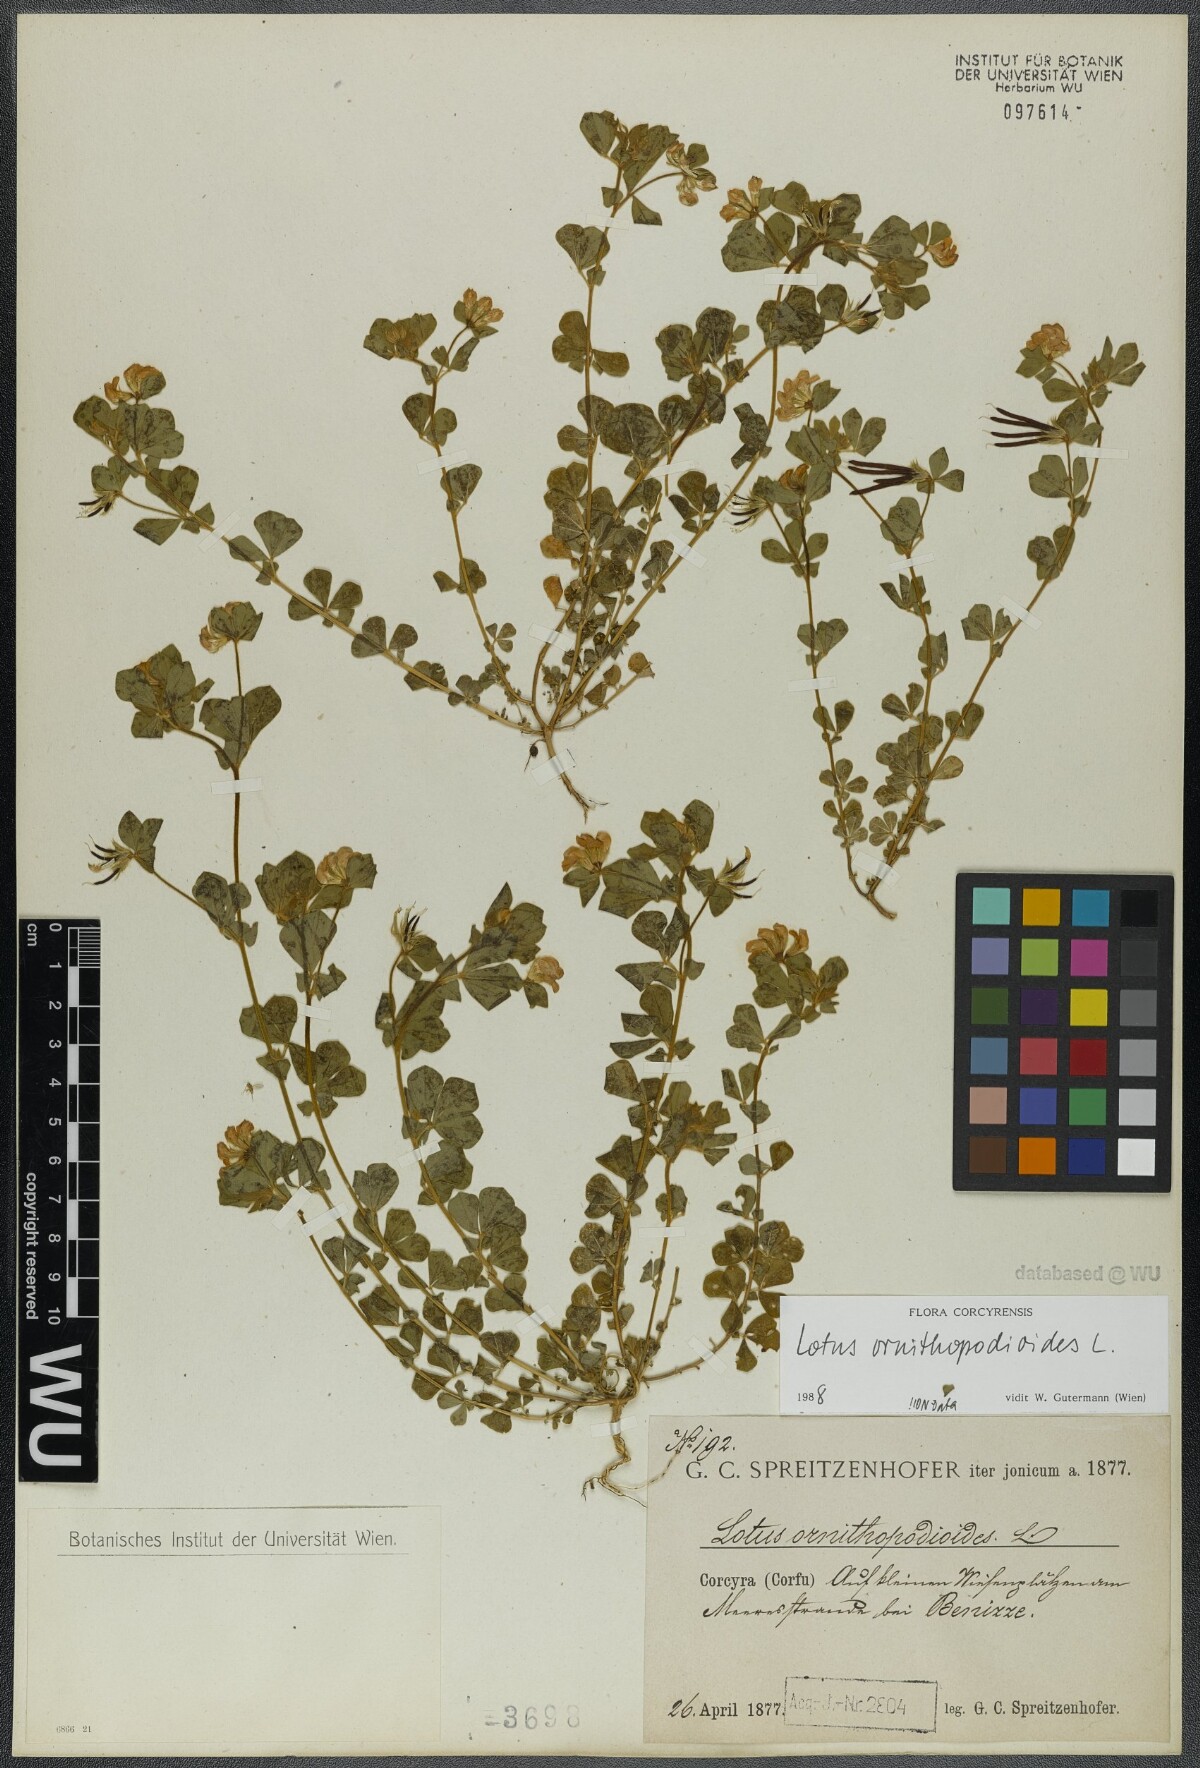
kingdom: Plantae
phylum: Tracheophyta
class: Magnoliopsida
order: Fabales
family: Fabaceae
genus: Lotus
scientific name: Lotus ornithopodioides
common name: Southern bird's-foot trefoil
